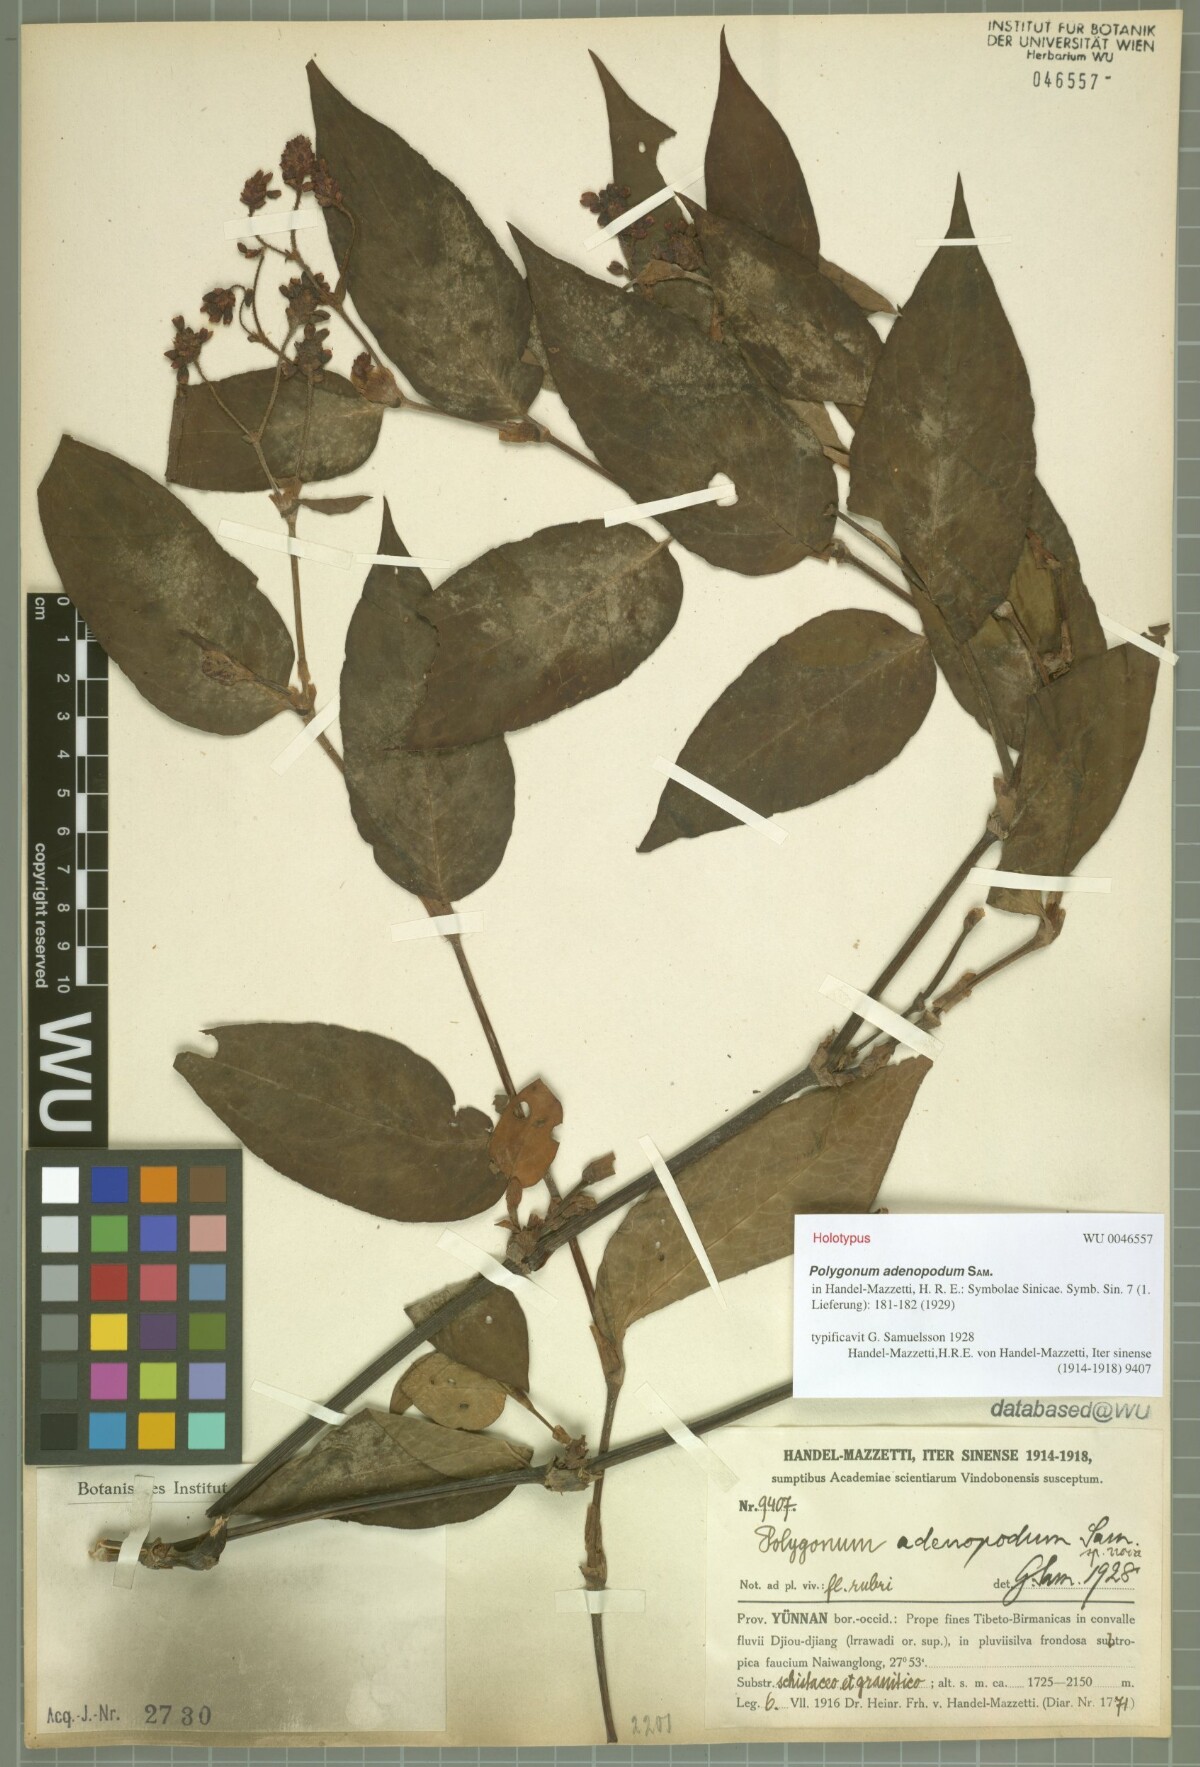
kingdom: Plantae
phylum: Tracheophyta
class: Magnoliopsida
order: Caryophyllales
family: Polygonaceae
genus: Persicaria
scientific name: Persicaria chinensis
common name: Chinese knotweed
